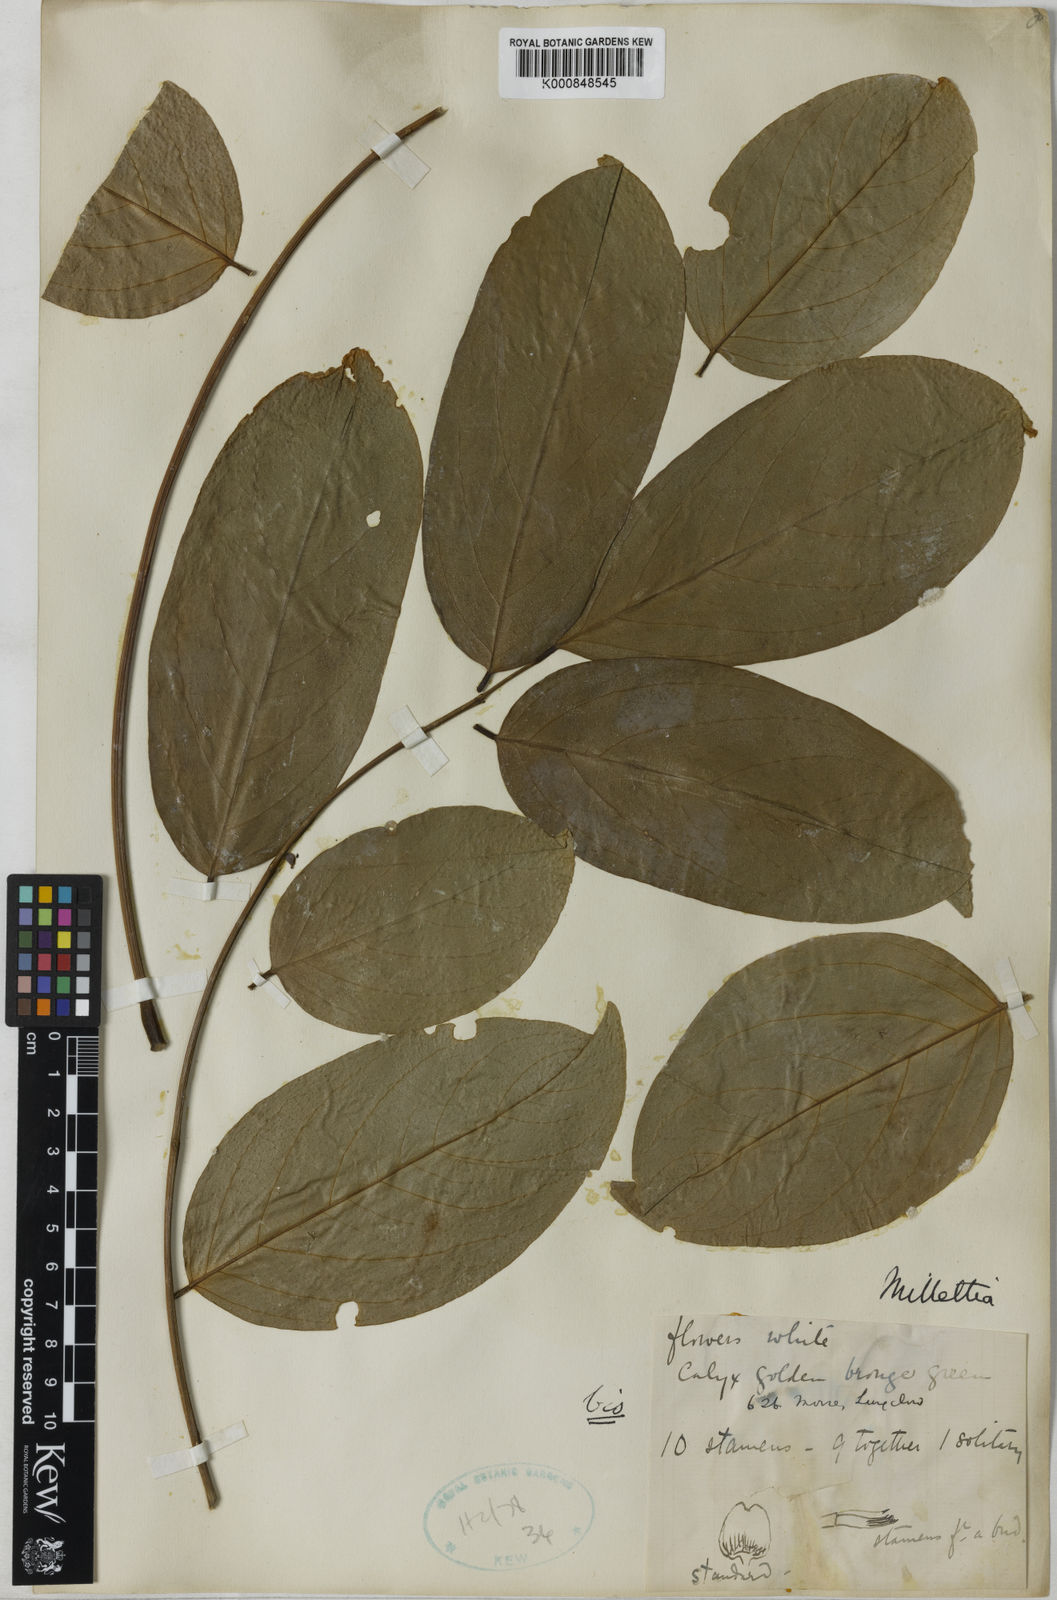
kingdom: Plantae
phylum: Tracheophyta
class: Magnoliopsida
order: Fabales
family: Fabaceae
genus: Aganope
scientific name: Aganope heptaphylla
